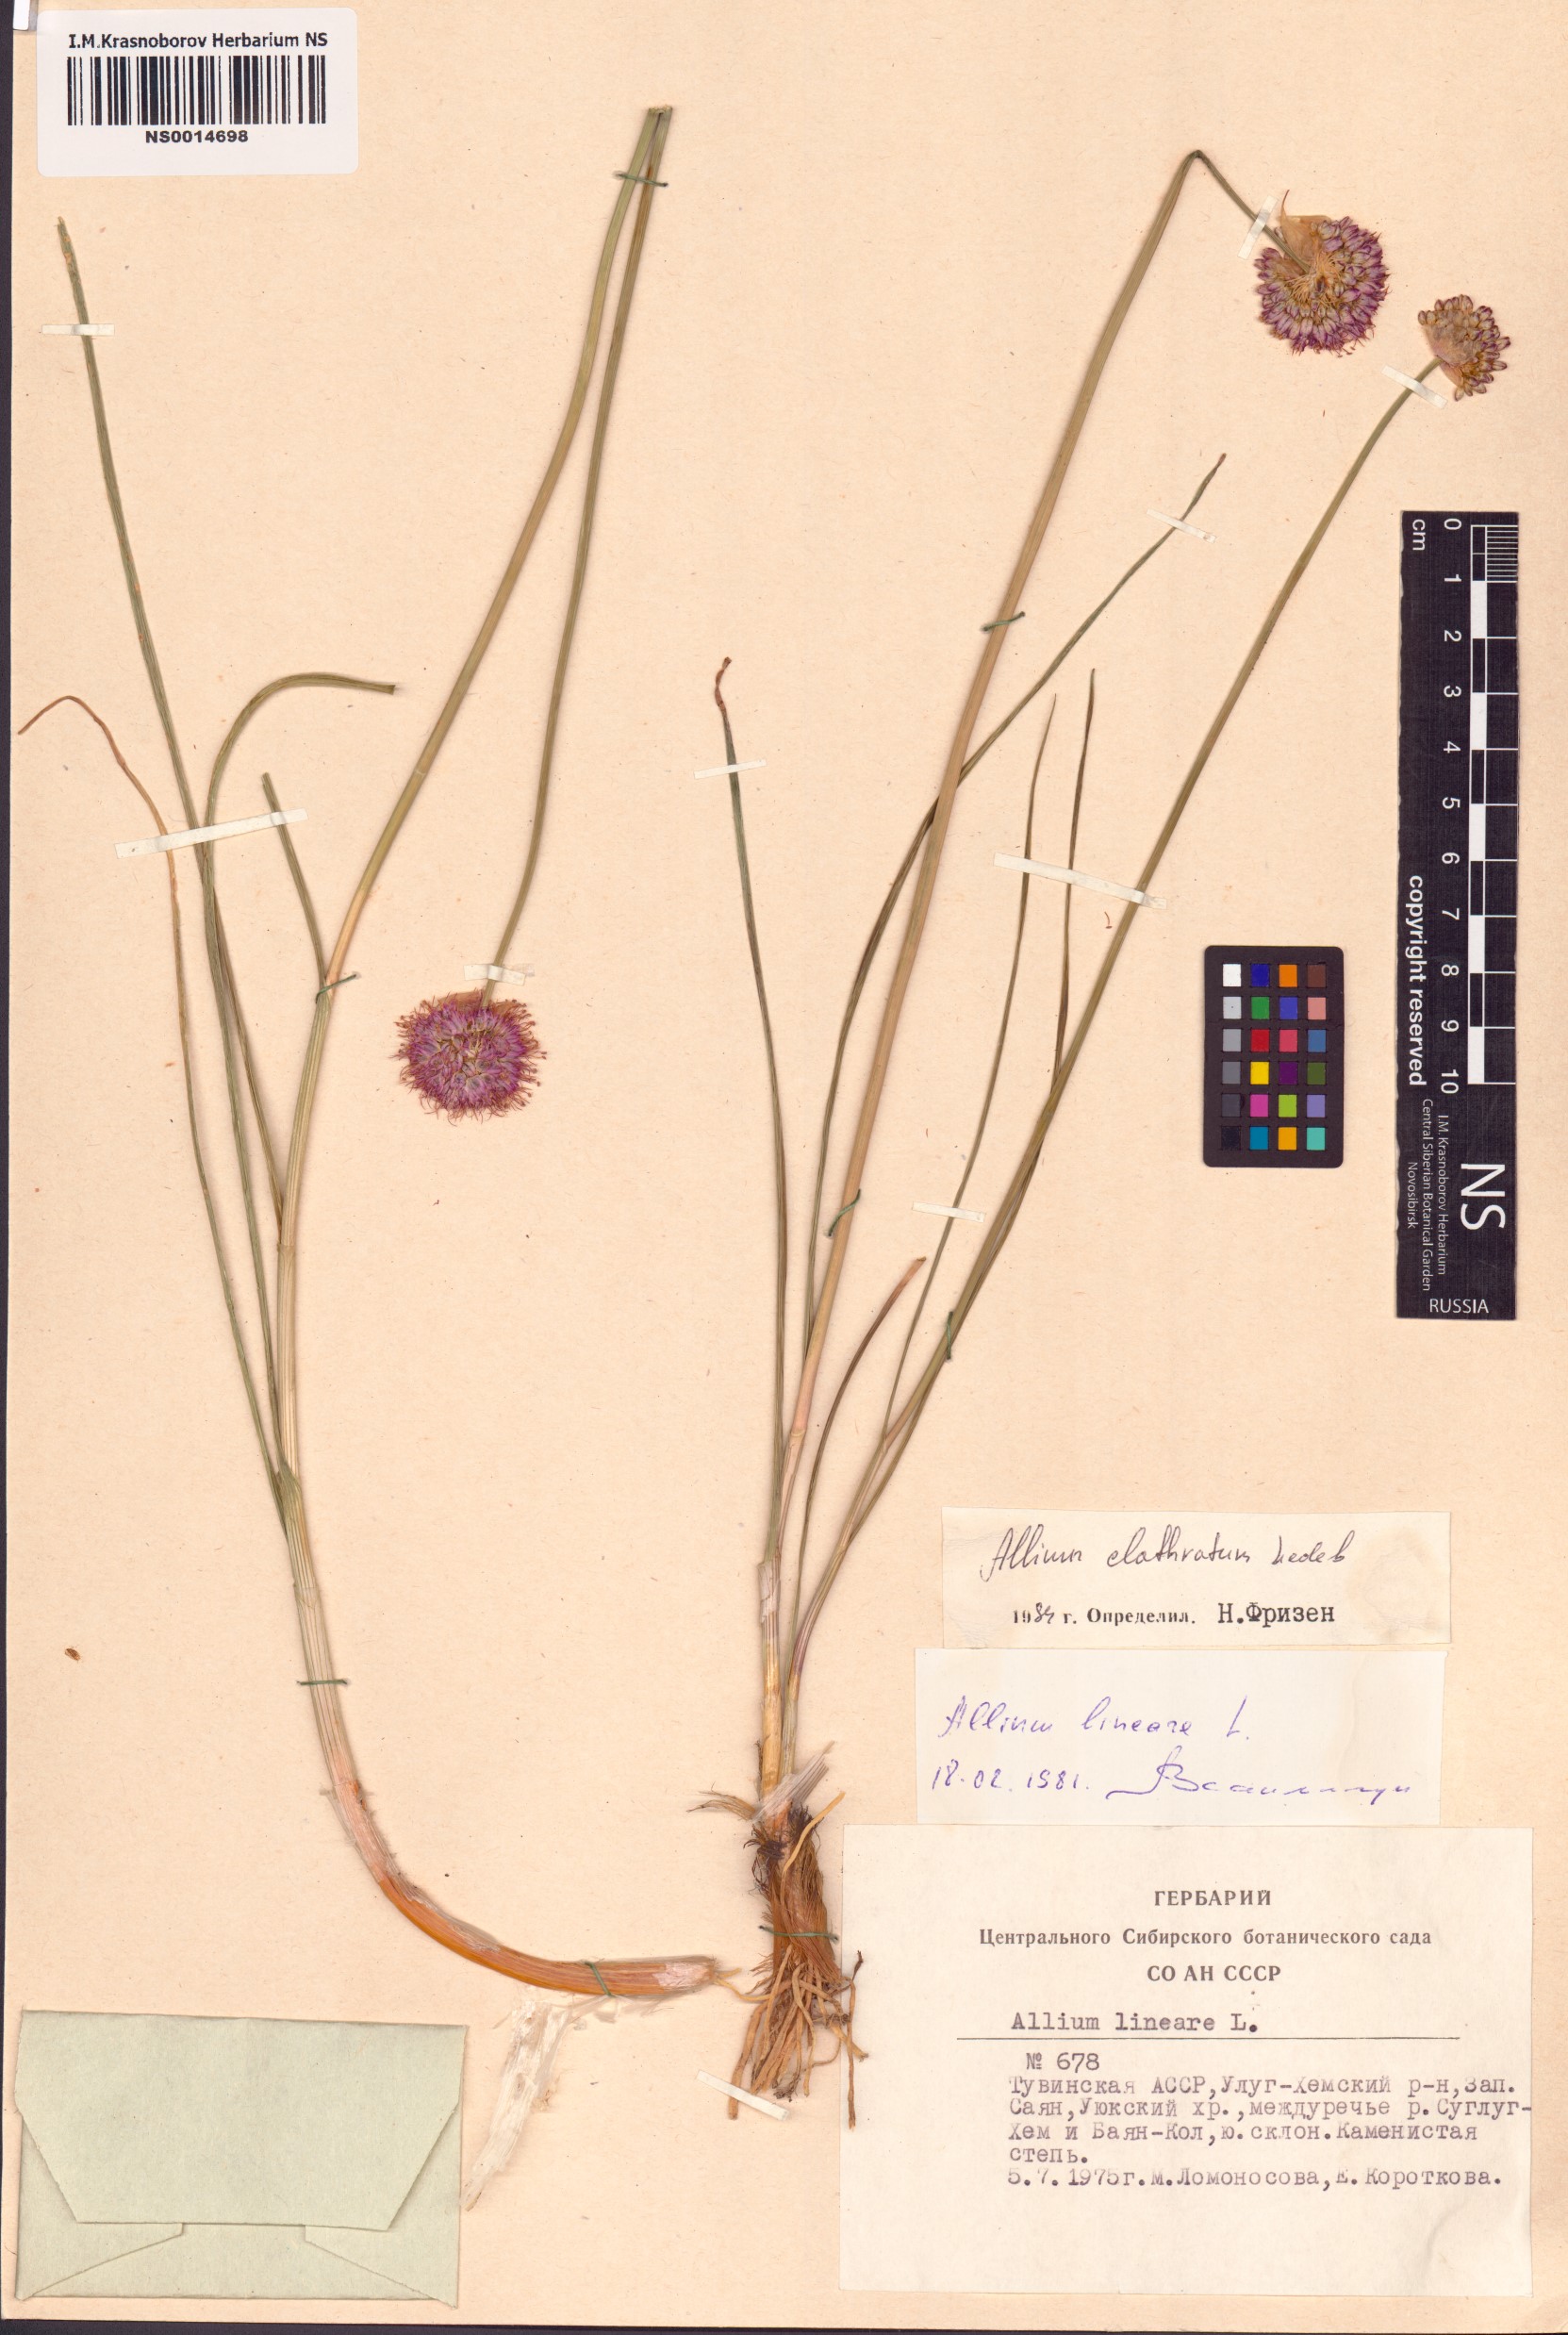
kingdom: Plantae
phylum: Tracheophyta
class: Liliopsida
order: Asparagales
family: Amaryllidaceae
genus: Allium
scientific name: Allium clathratum
